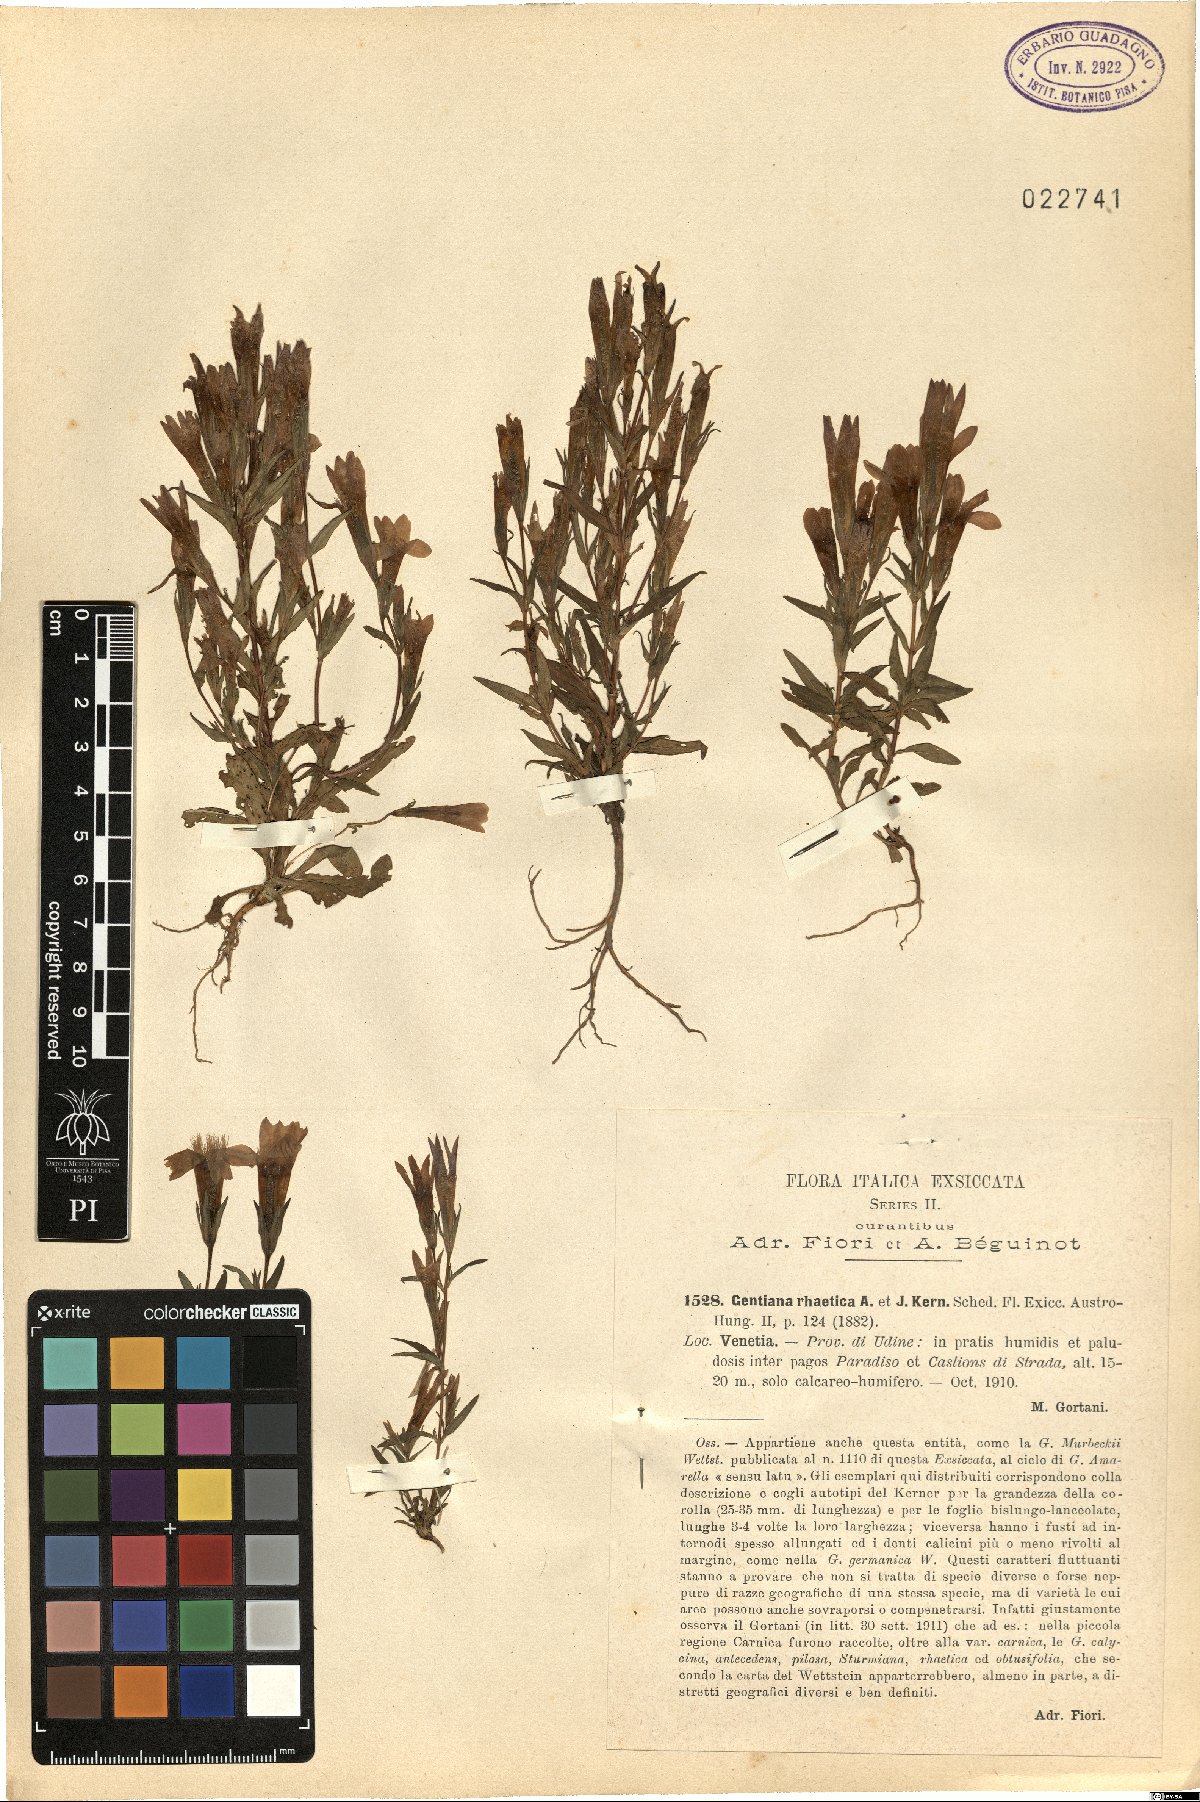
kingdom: Plantae
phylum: Tracheophyta
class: Magnoliopsida
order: Gentianales
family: Gentianaceae
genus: Gentianella
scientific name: Gentianella rhaetica
